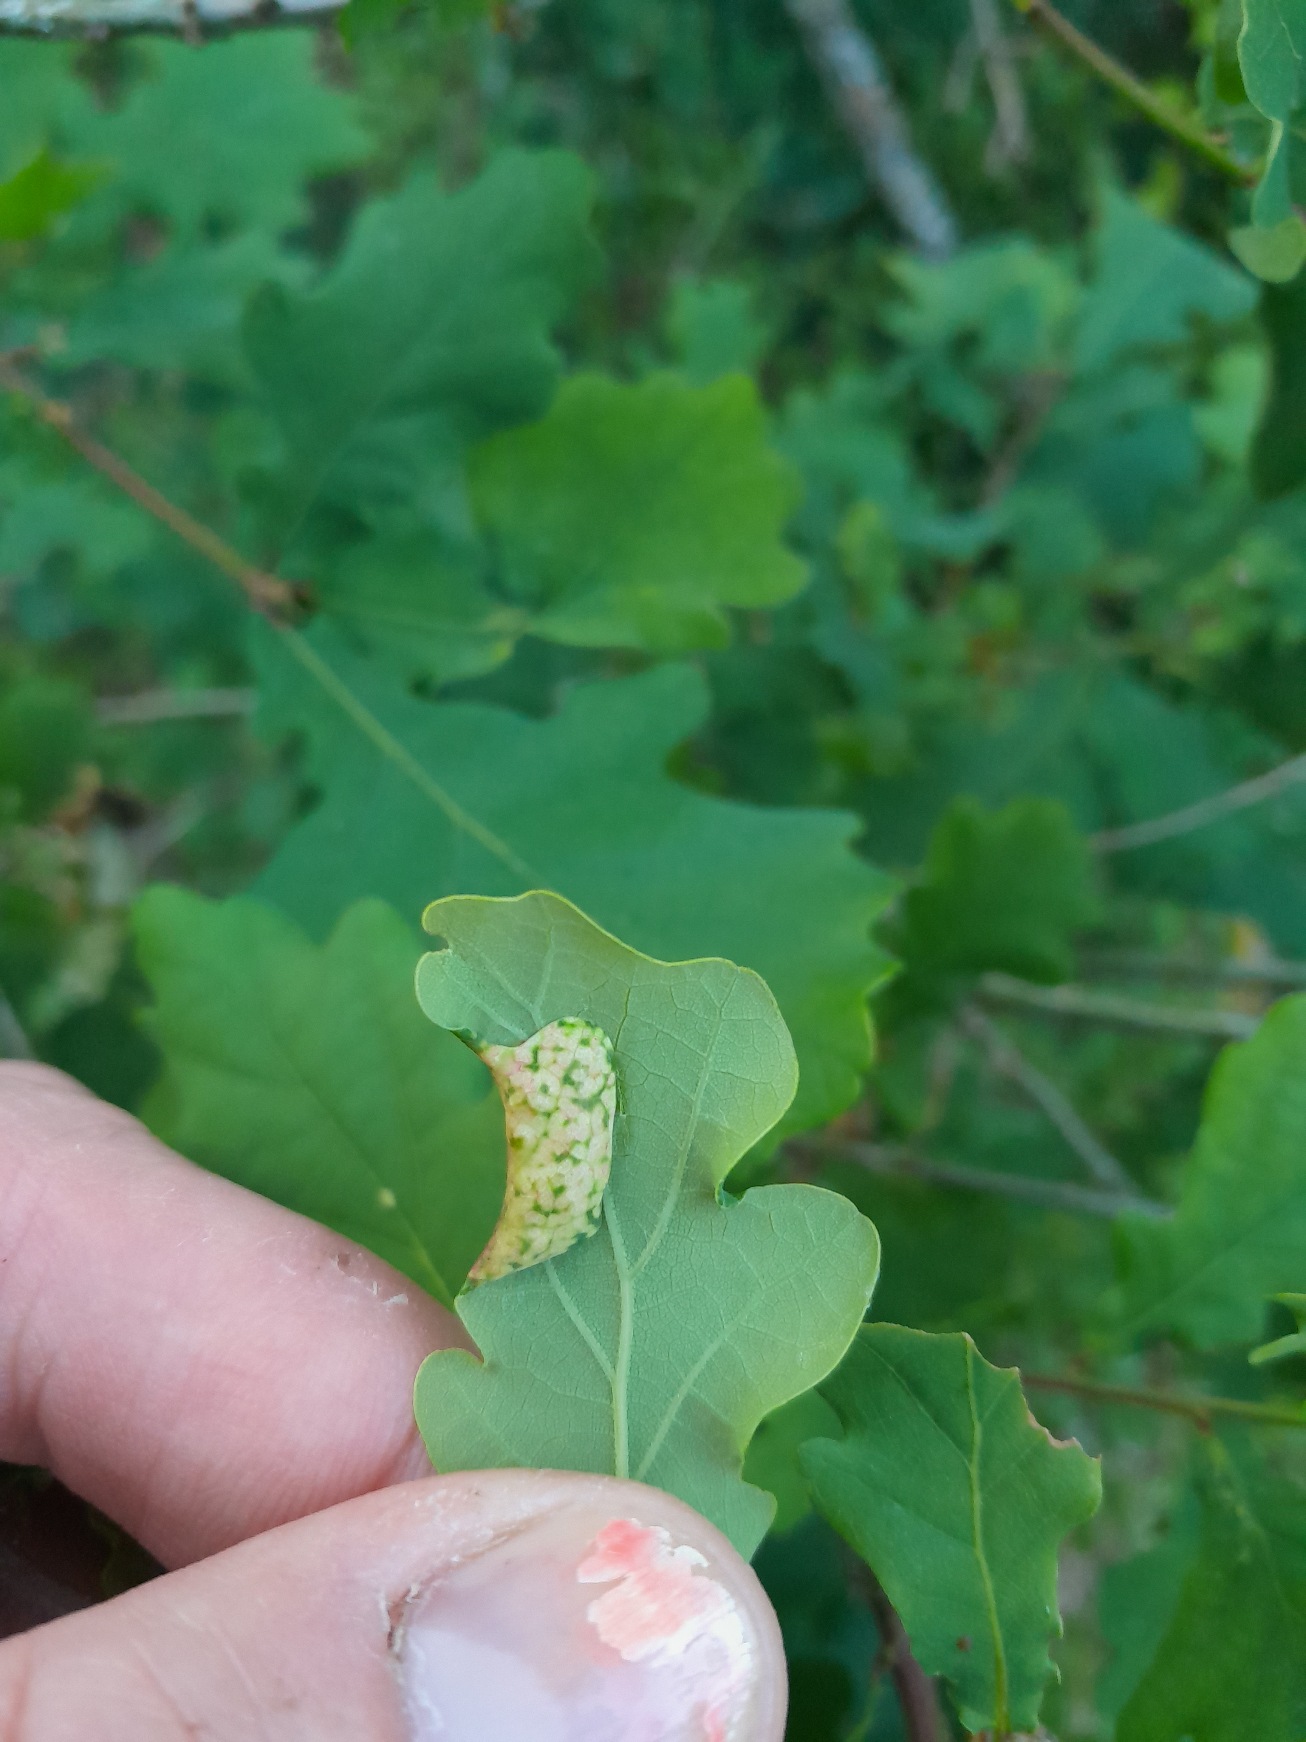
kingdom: Animalia
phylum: Arthropoda
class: Insecta
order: Diptera
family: Cecidomyiidae
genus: Macrodiplosis
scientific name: Macrodiplosis pustularis
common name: Marmorgalmyg
